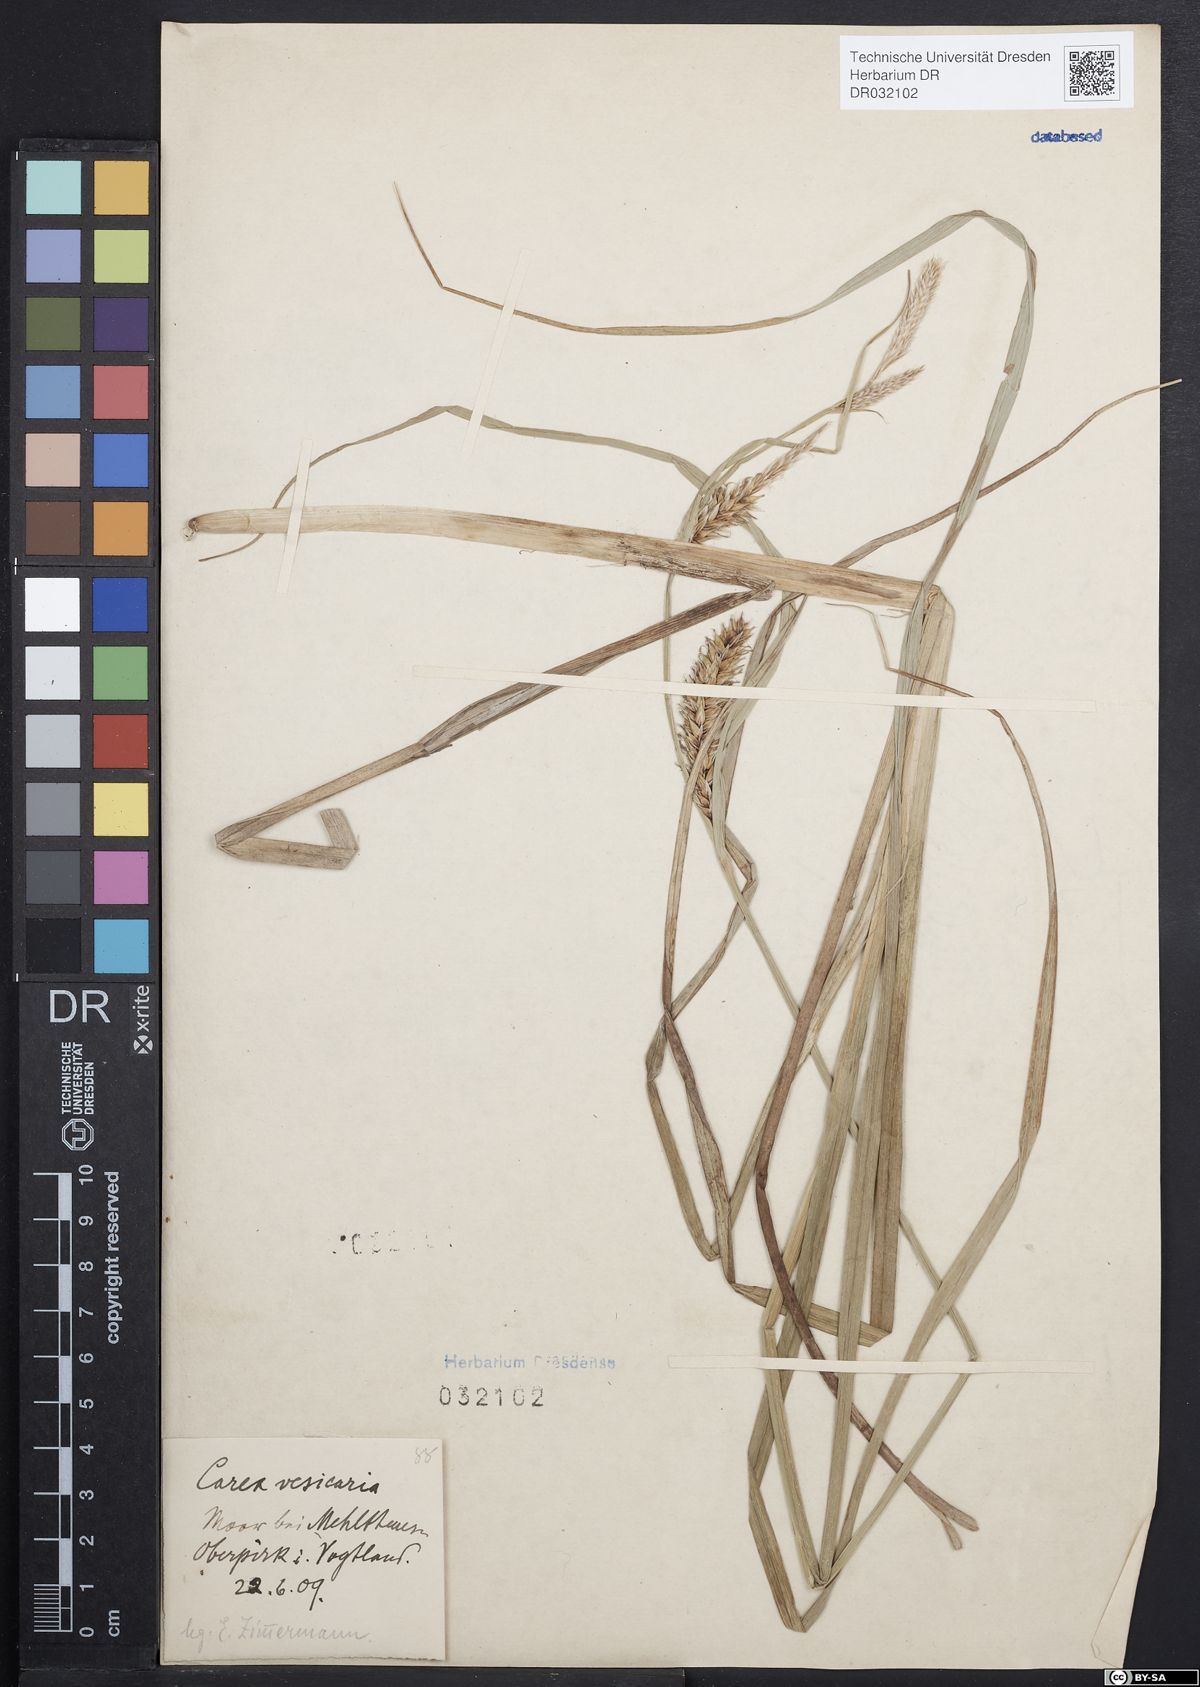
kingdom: Plantae
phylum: Tracheophyta
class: Liliopsida
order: Poales
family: Cyperaceae
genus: Carex
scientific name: Carex vesicaria
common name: Bladder-sedge
